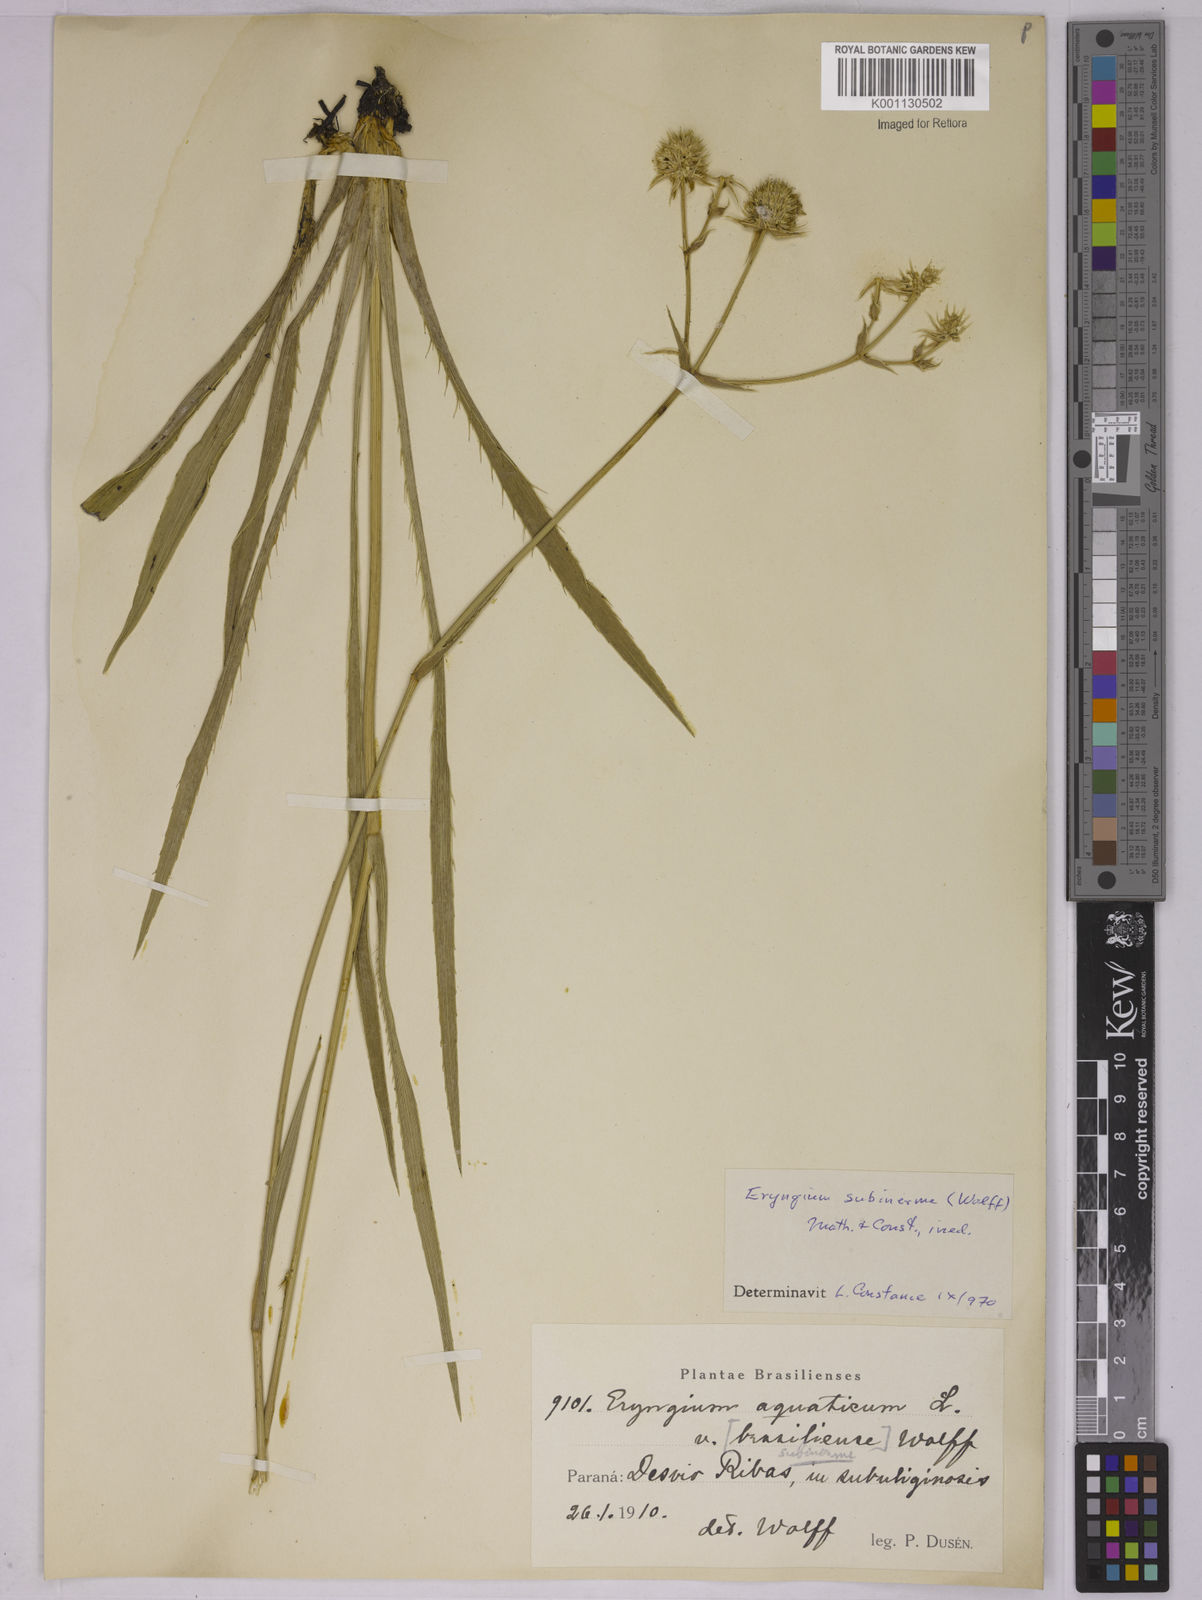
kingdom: Plantae
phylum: Tracheophyta
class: Magnoliopsida
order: Apiales
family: Apiaceae
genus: Eryngium
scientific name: Eryngium aquaticum
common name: Water eryngo
